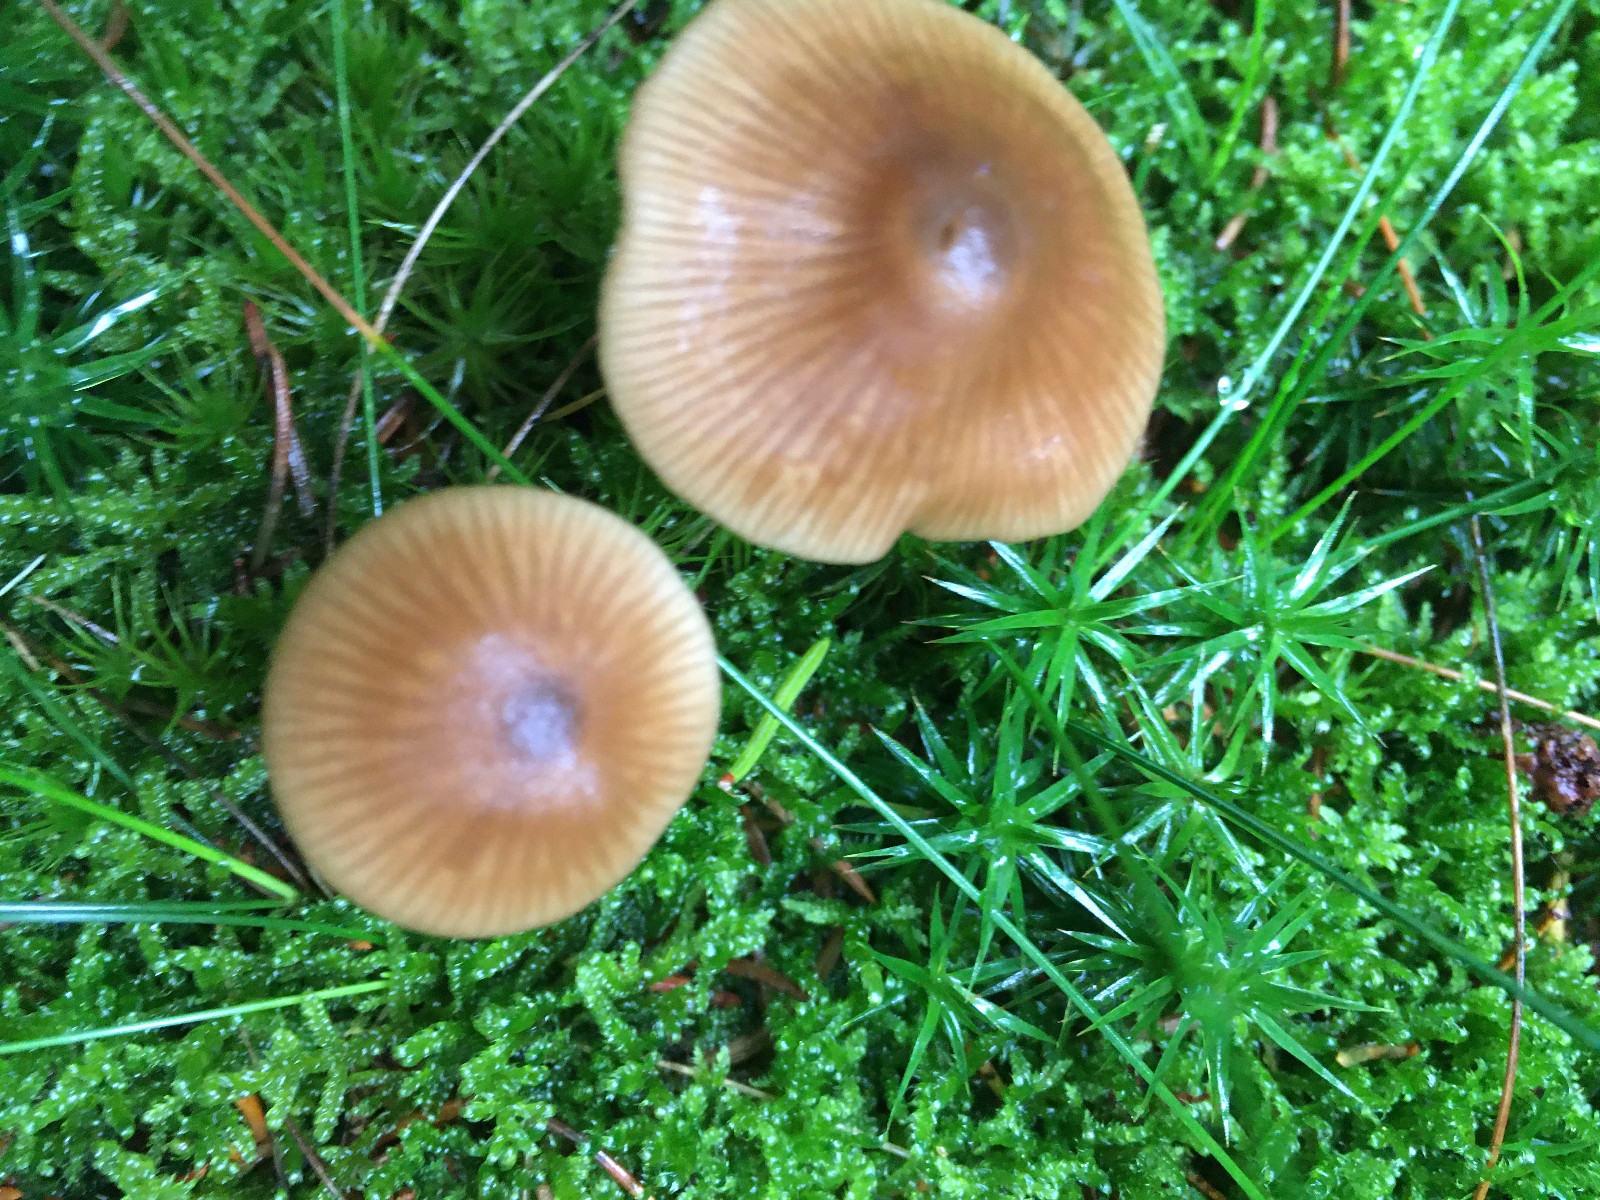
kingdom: Fungi
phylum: Basidiomycota
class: Agaricomycetes
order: Agaricales
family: Entolomataceae
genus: Entoloma
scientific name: Entoloma cetratum
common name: voks-rødblad
